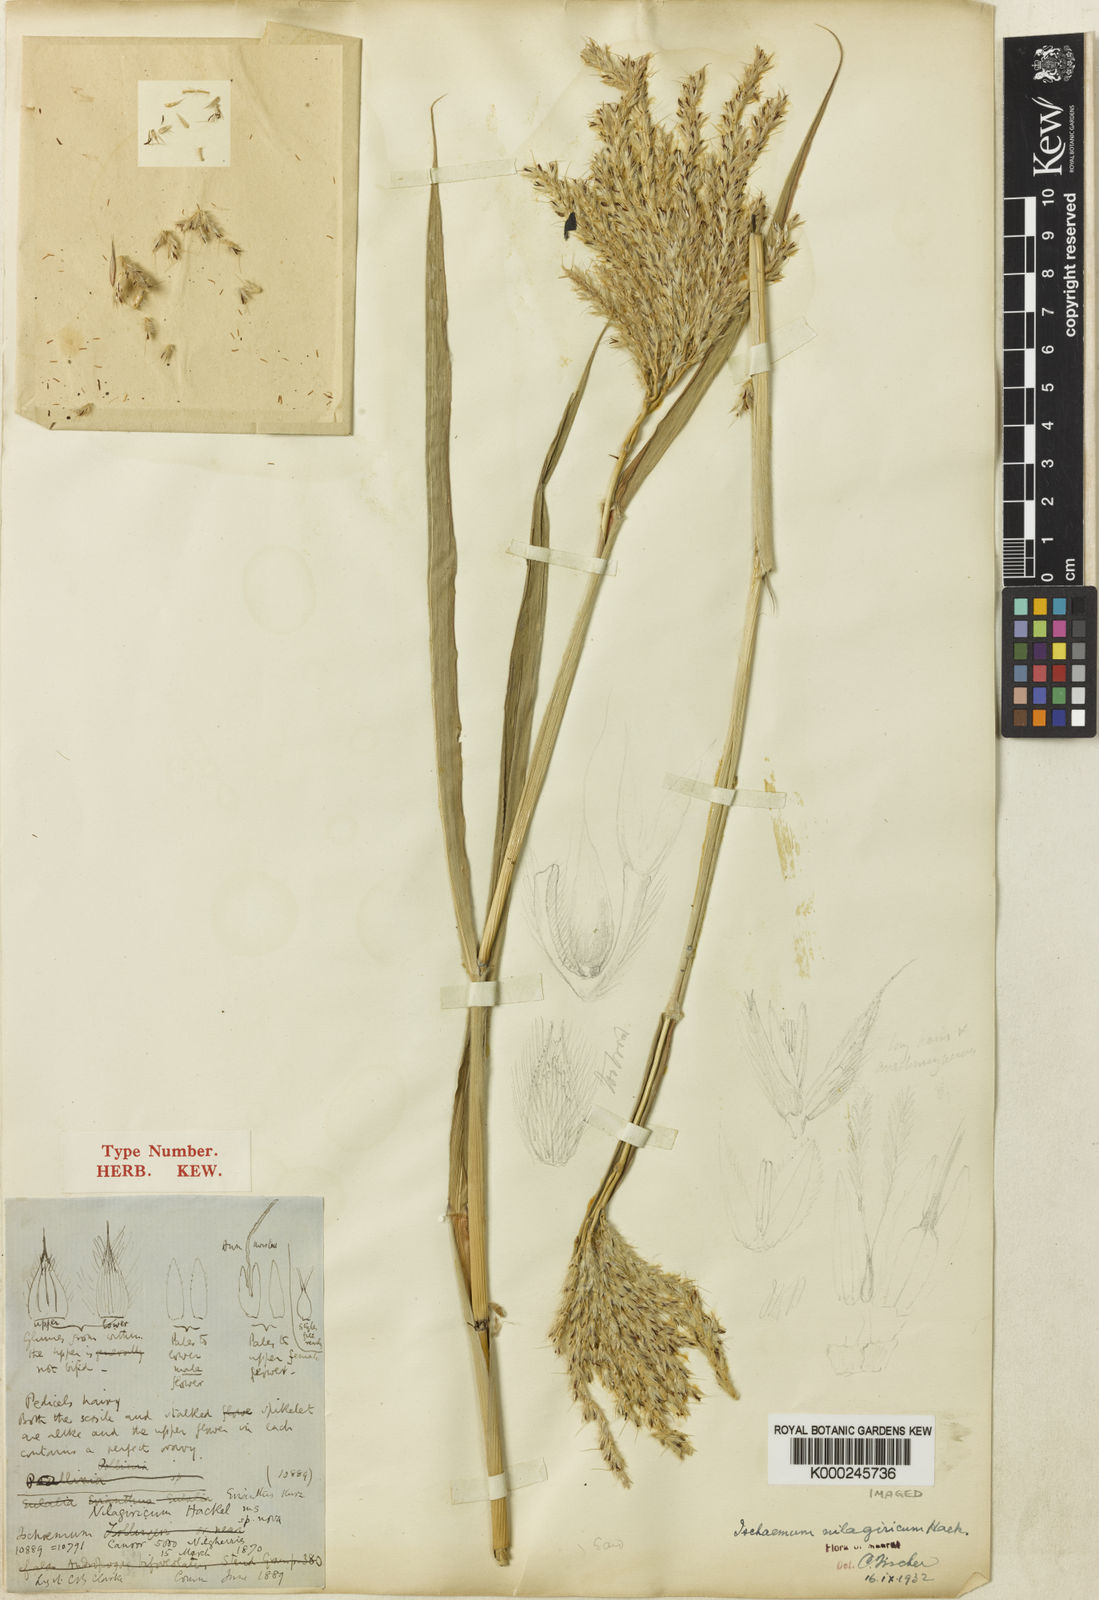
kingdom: Plantae
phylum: Tracheophyta
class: Liliopsida
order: Poales
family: Poaceae
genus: Ischaemum
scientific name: Ischaemum polystachyum
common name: Paddle grass
